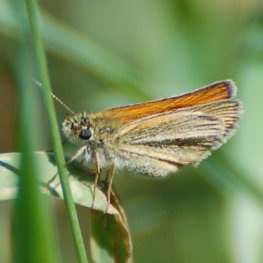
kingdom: Animalia
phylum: Arthropoda
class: Insecta
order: Lepidoptera
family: Hesperiidae
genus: Thymelicus
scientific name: Thymelicus lineola
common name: European Skipper
